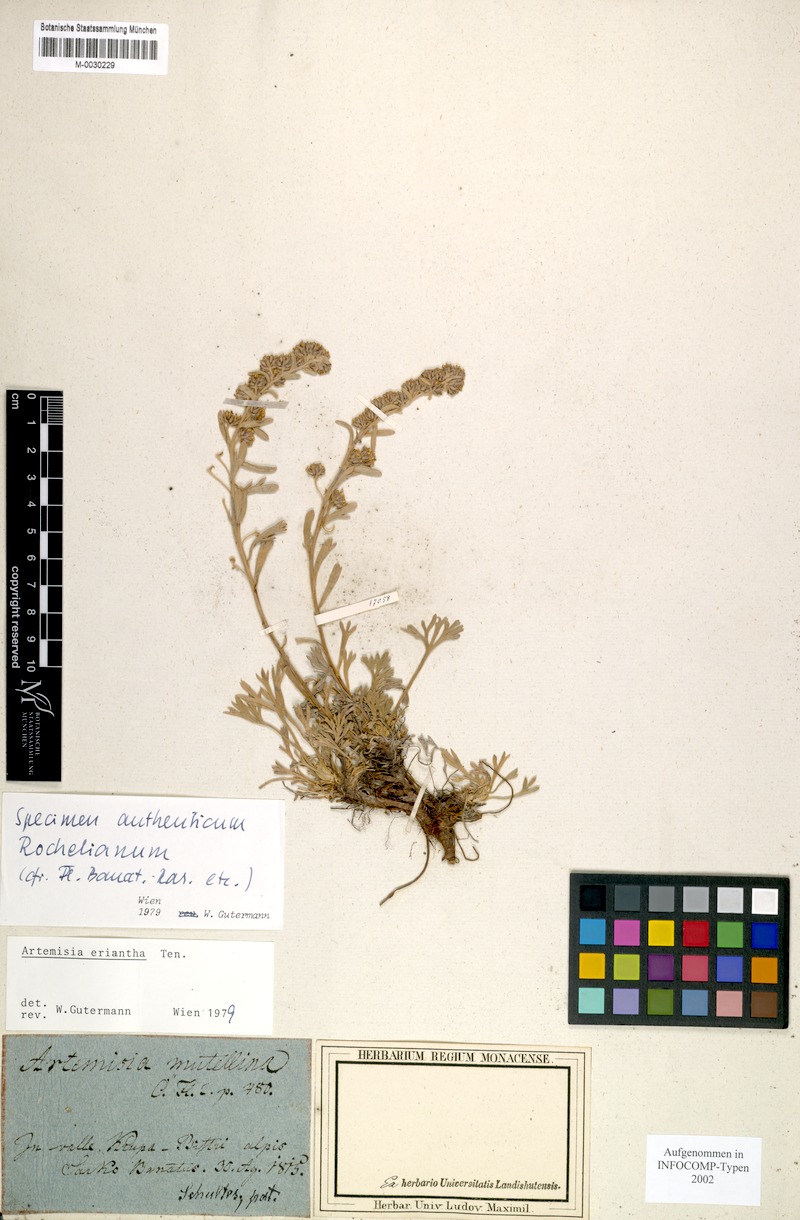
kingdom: Plantae
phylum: Tracheophyta
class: Magnoliopsida
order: Asterales
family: Asteraceae
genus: Artemisia
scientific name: Artemisia eriantha
